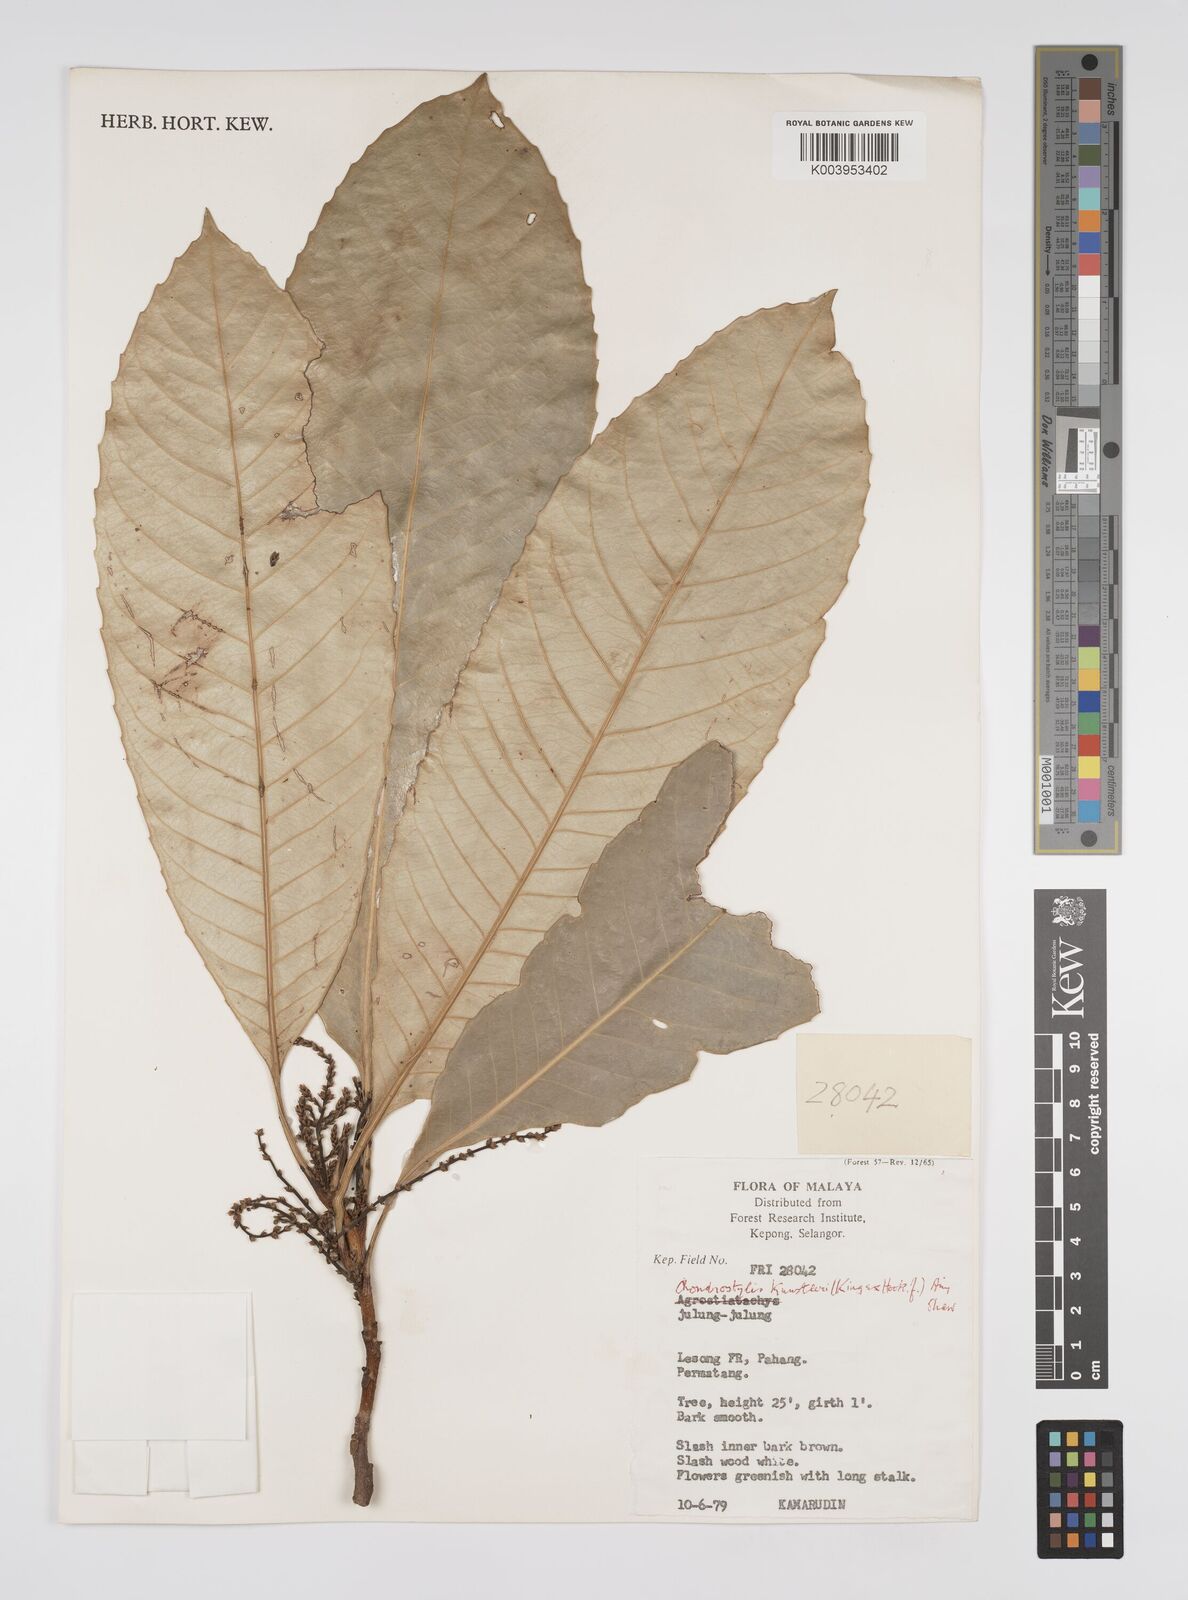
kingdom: Plantae
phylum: Tracheophyta
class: Magnoliopsida
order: Malpighiales
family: Euphorbiaceae
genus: Chondrostylis
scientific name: Chondrostylis kunstleri
